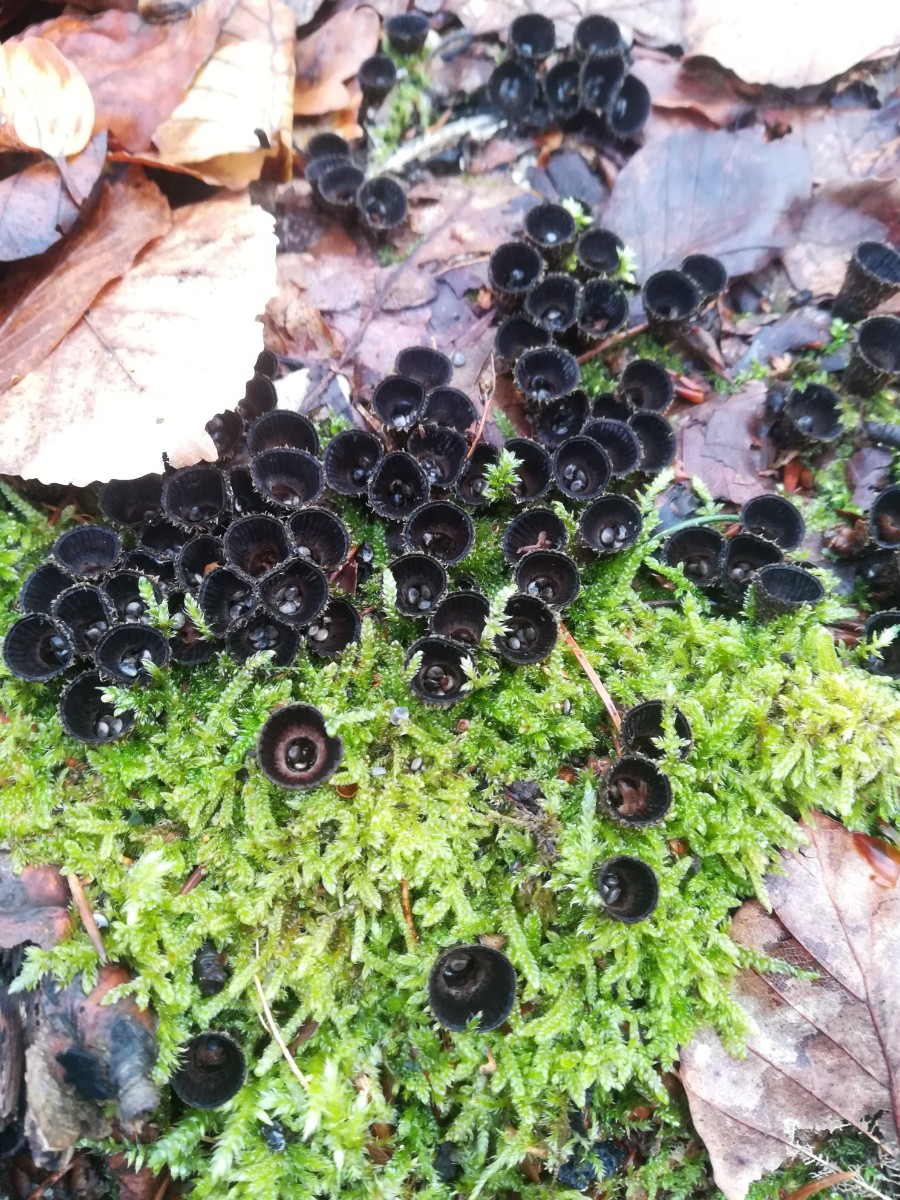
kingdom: Fungi
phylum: Basidiomycota
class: Agaricomycetes
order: Agaricales
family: Agaricaceae
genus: Cyathus
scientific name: Cyathus striatus
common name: stribet redesvamp
